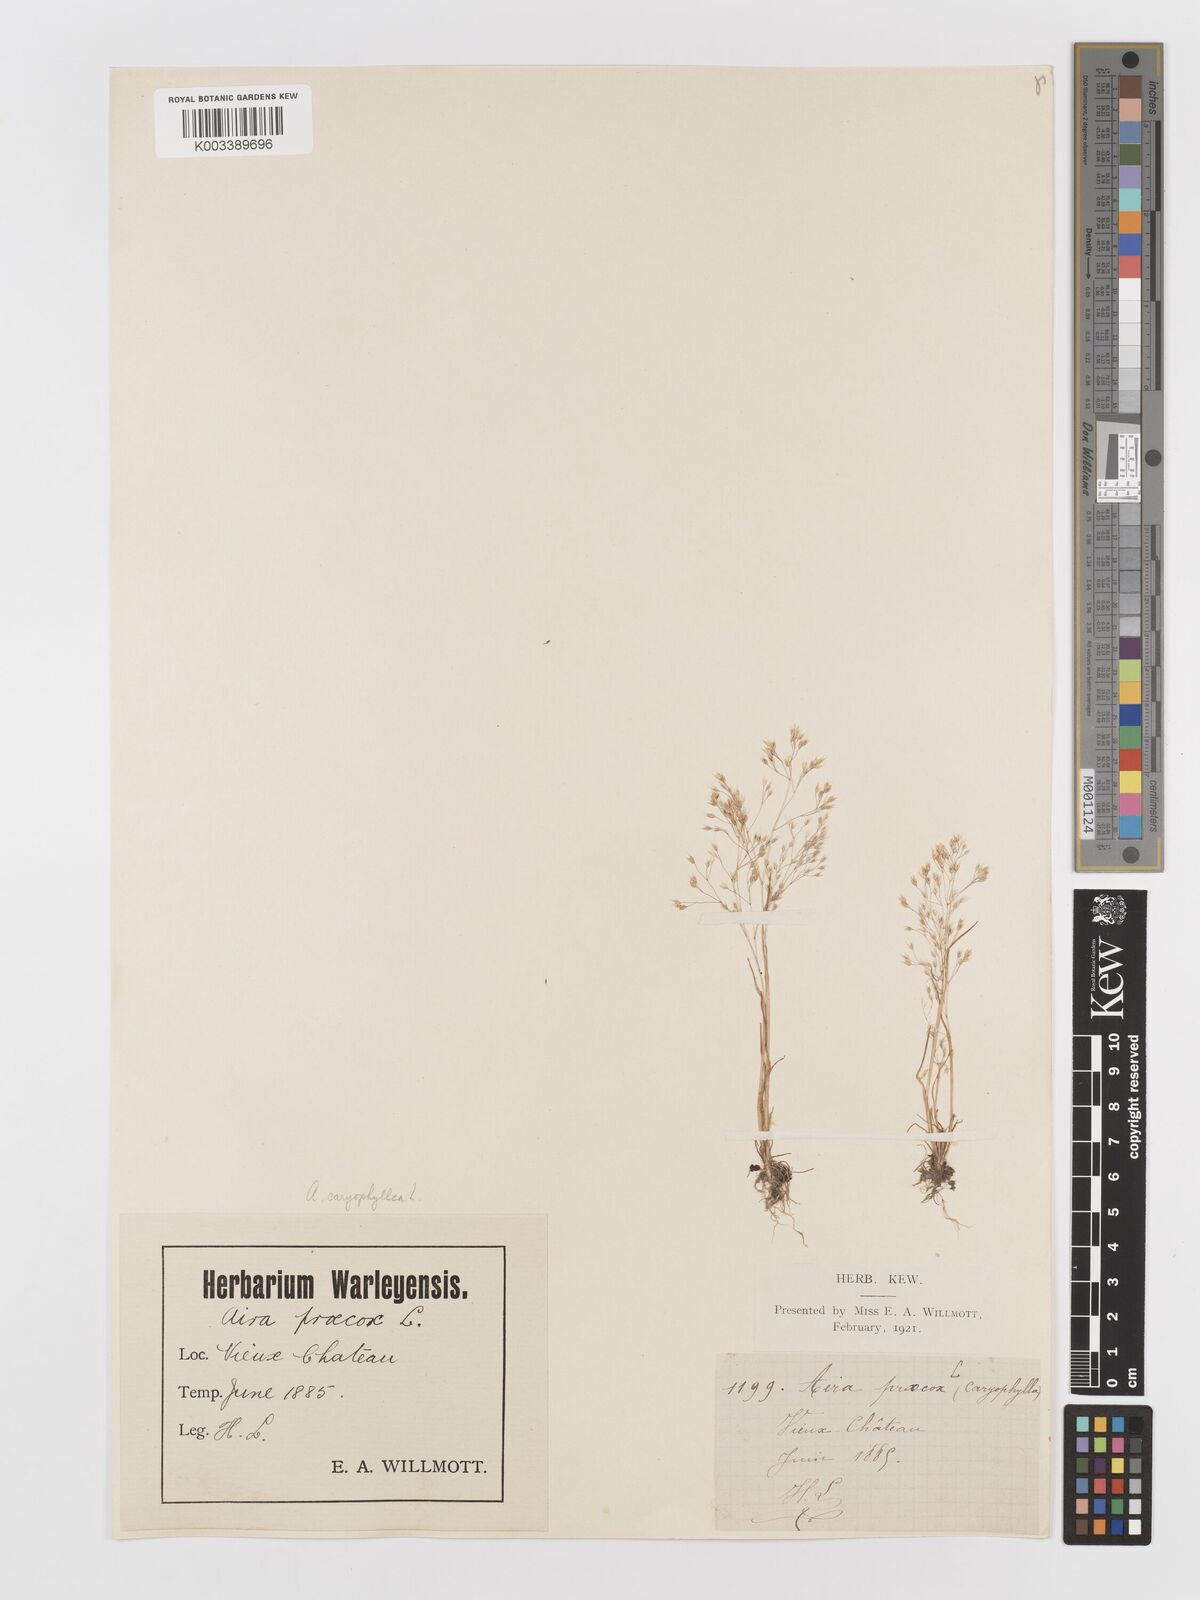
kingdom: Plantae
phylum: Tracheophyta
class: Liliopsida
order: Poales
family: Poaceae
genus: Aira
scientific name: Aira caryophyllea
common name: Silver hairgrass
